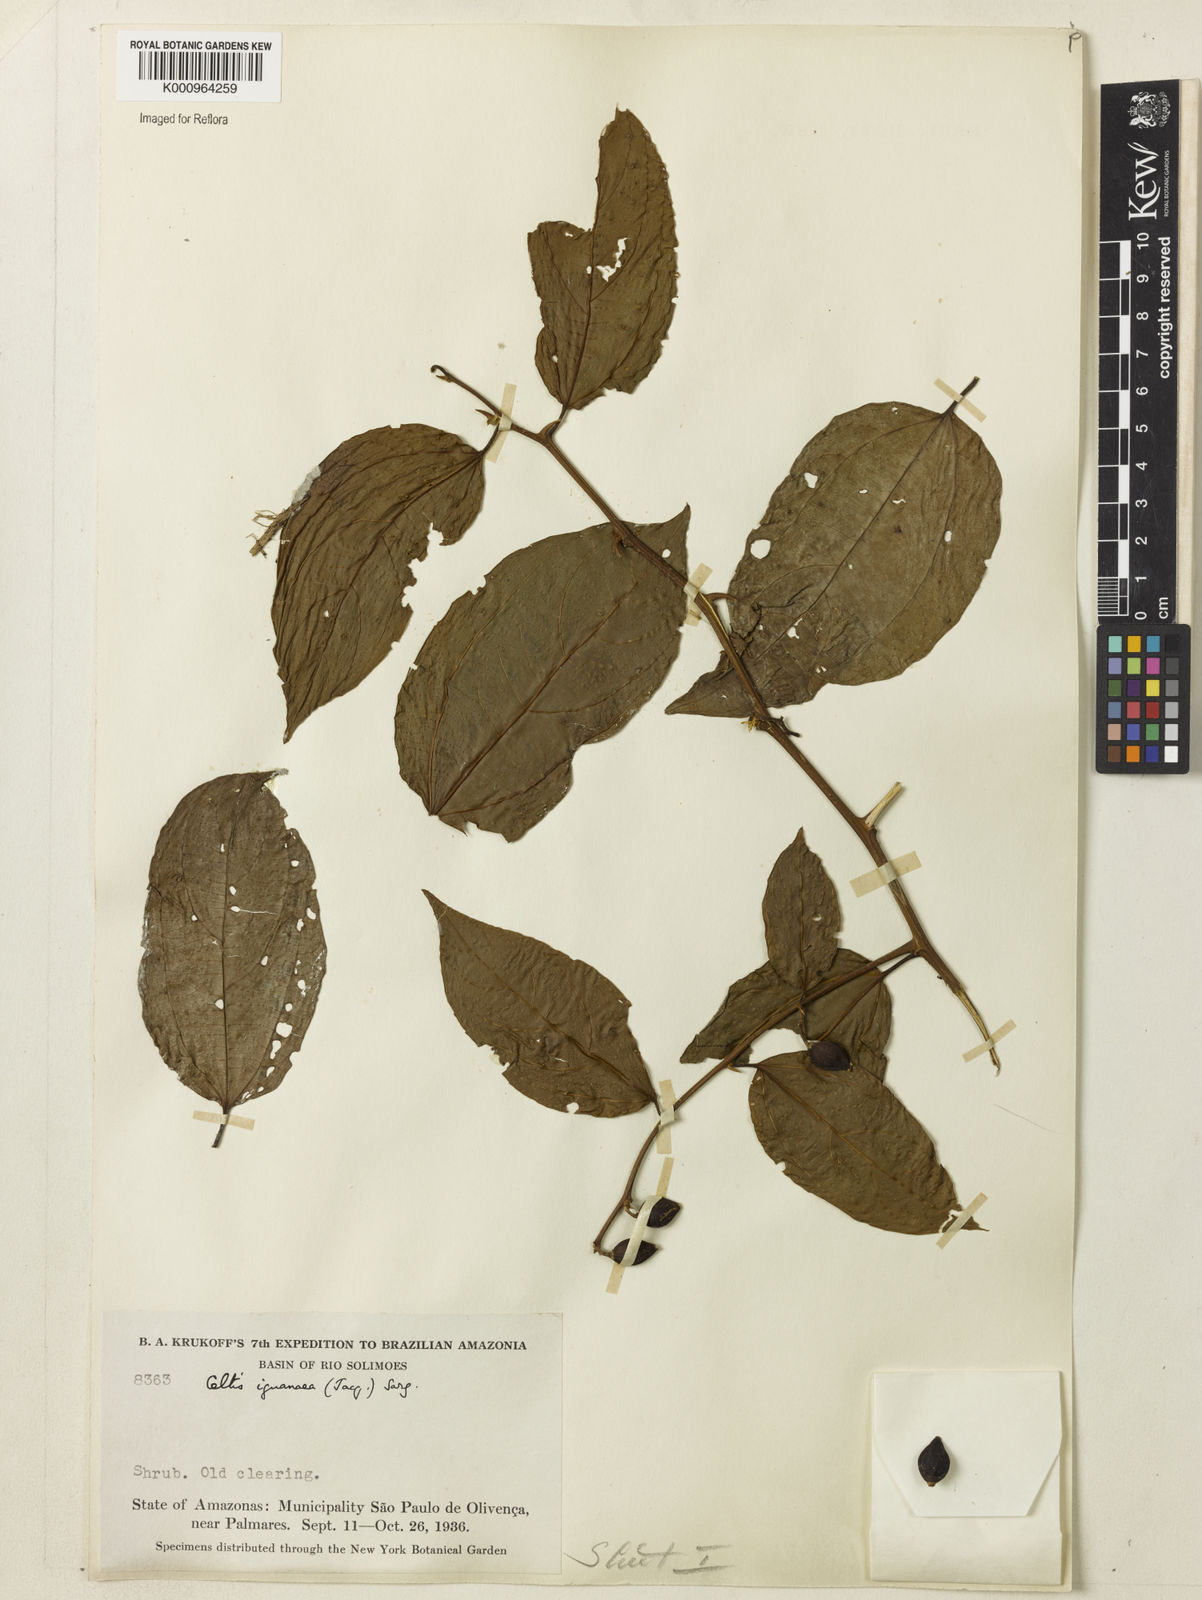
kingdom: Plantae
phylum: Tracheophyta
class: Magnoliopsida
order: Rosales
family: Cannabaceae
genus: Celtis
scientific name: Celtis iguanaea
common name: Iguana hackberry
